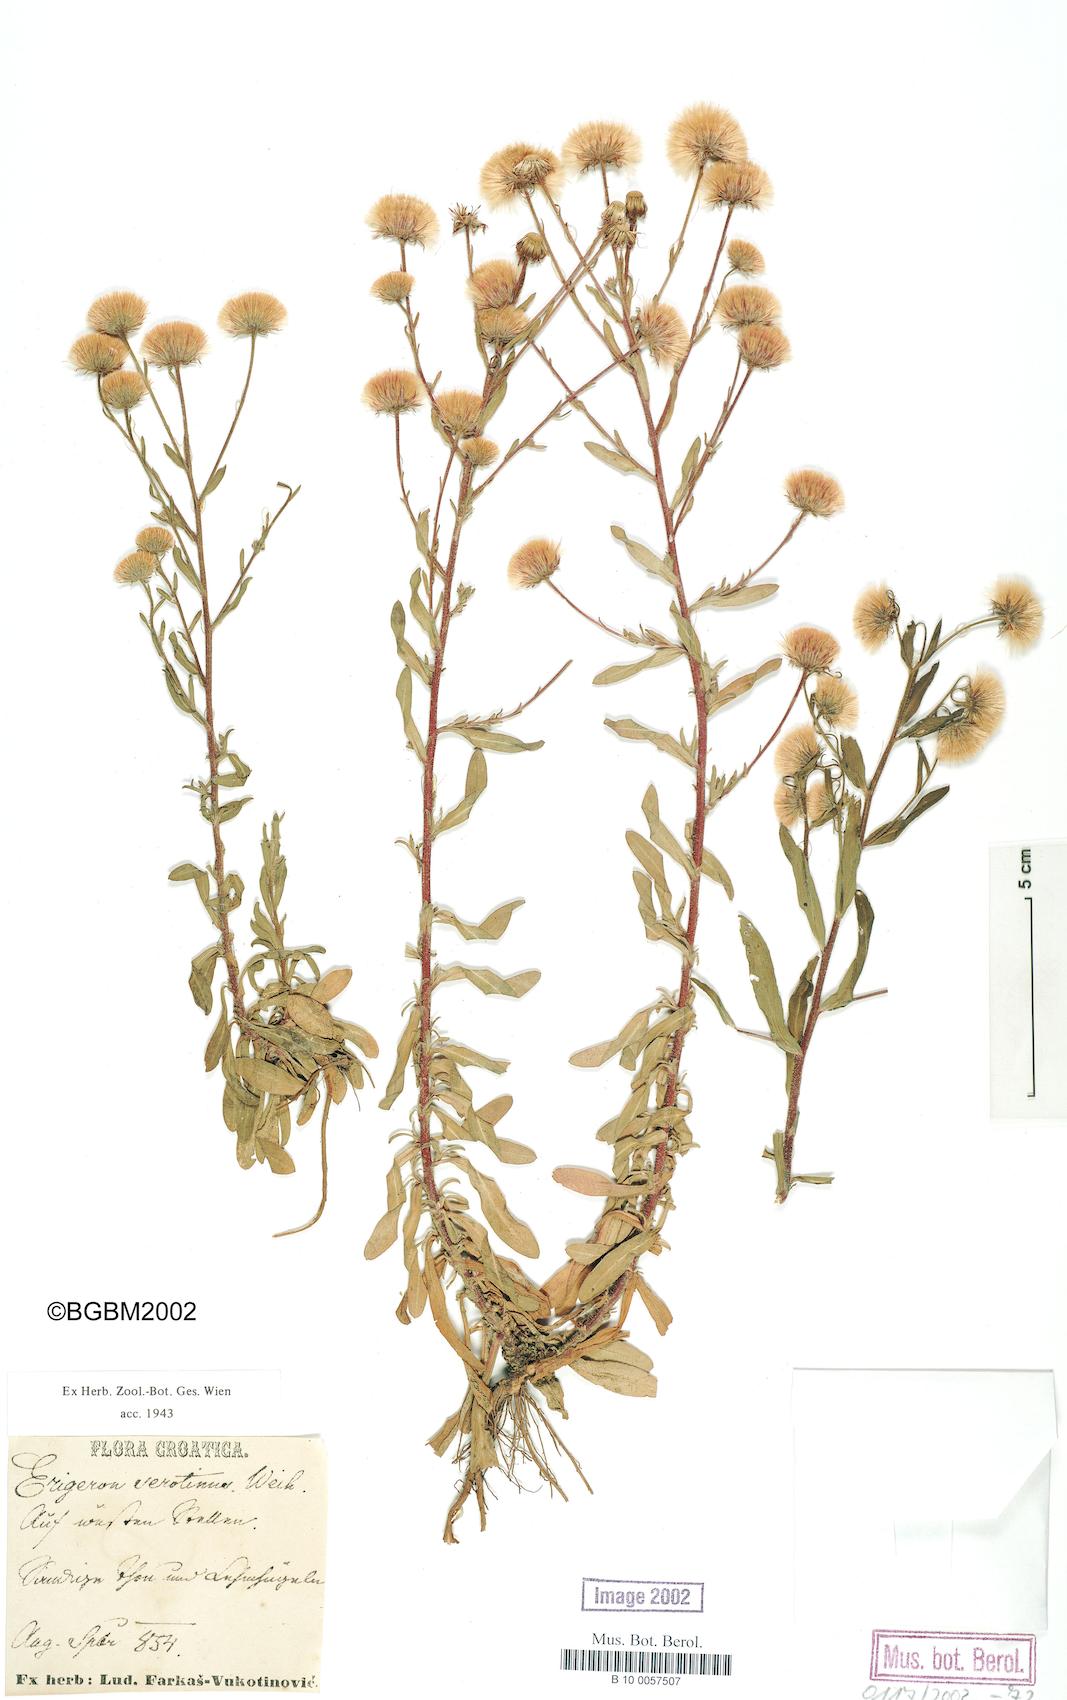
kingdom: Plantae
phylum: Tracheophyta
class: Magnoliopsida
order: Asterales
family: Asteraceae
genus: Erigeron
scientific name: Erigeron muralis
